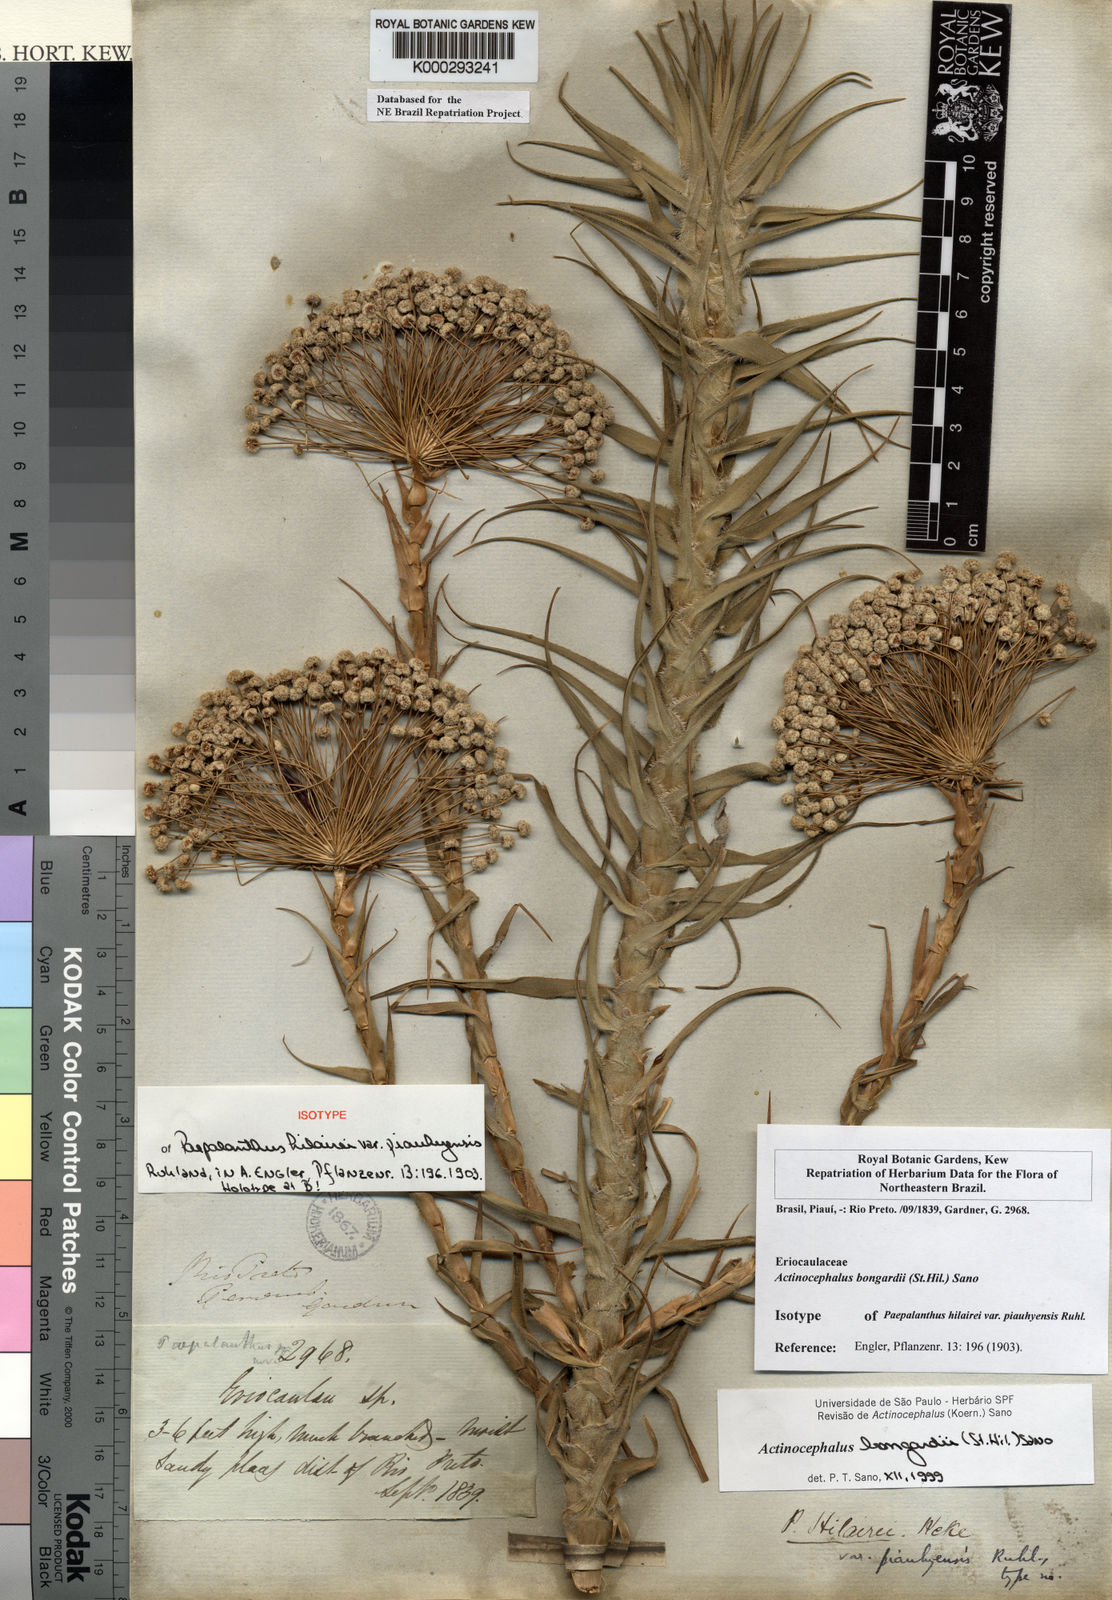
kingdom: Plantae
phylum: Tracheophyta
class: Liliopsida
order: Poales
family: Eriocaulaceae
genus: Paepalanthus
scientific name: Paepalanthus hilairei
